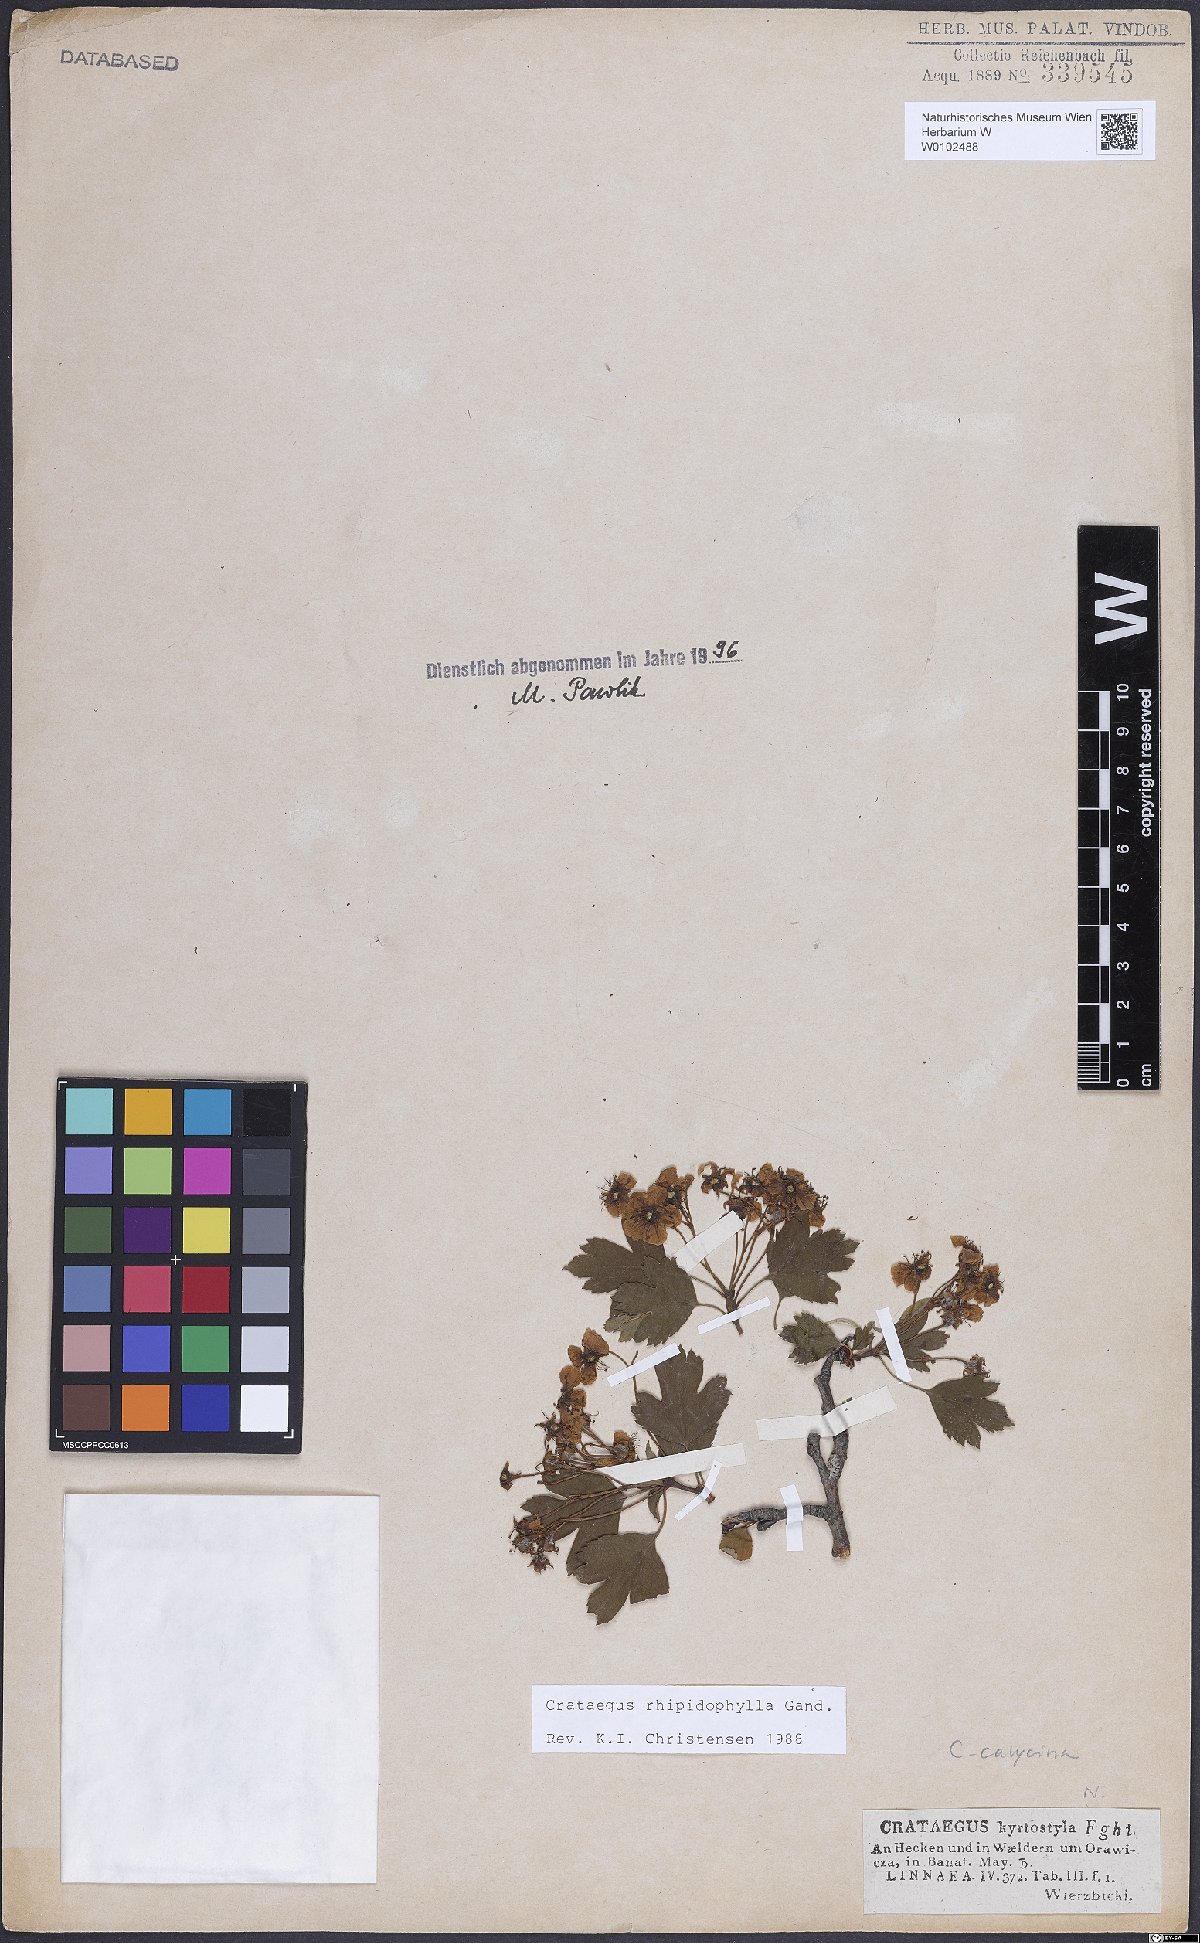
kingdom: Plantae
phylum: Tracheophyta
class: Magnoliopsida
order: Rosales
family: Rosaceae
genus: Crataegus
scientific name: Crataegus rhipidophylla
